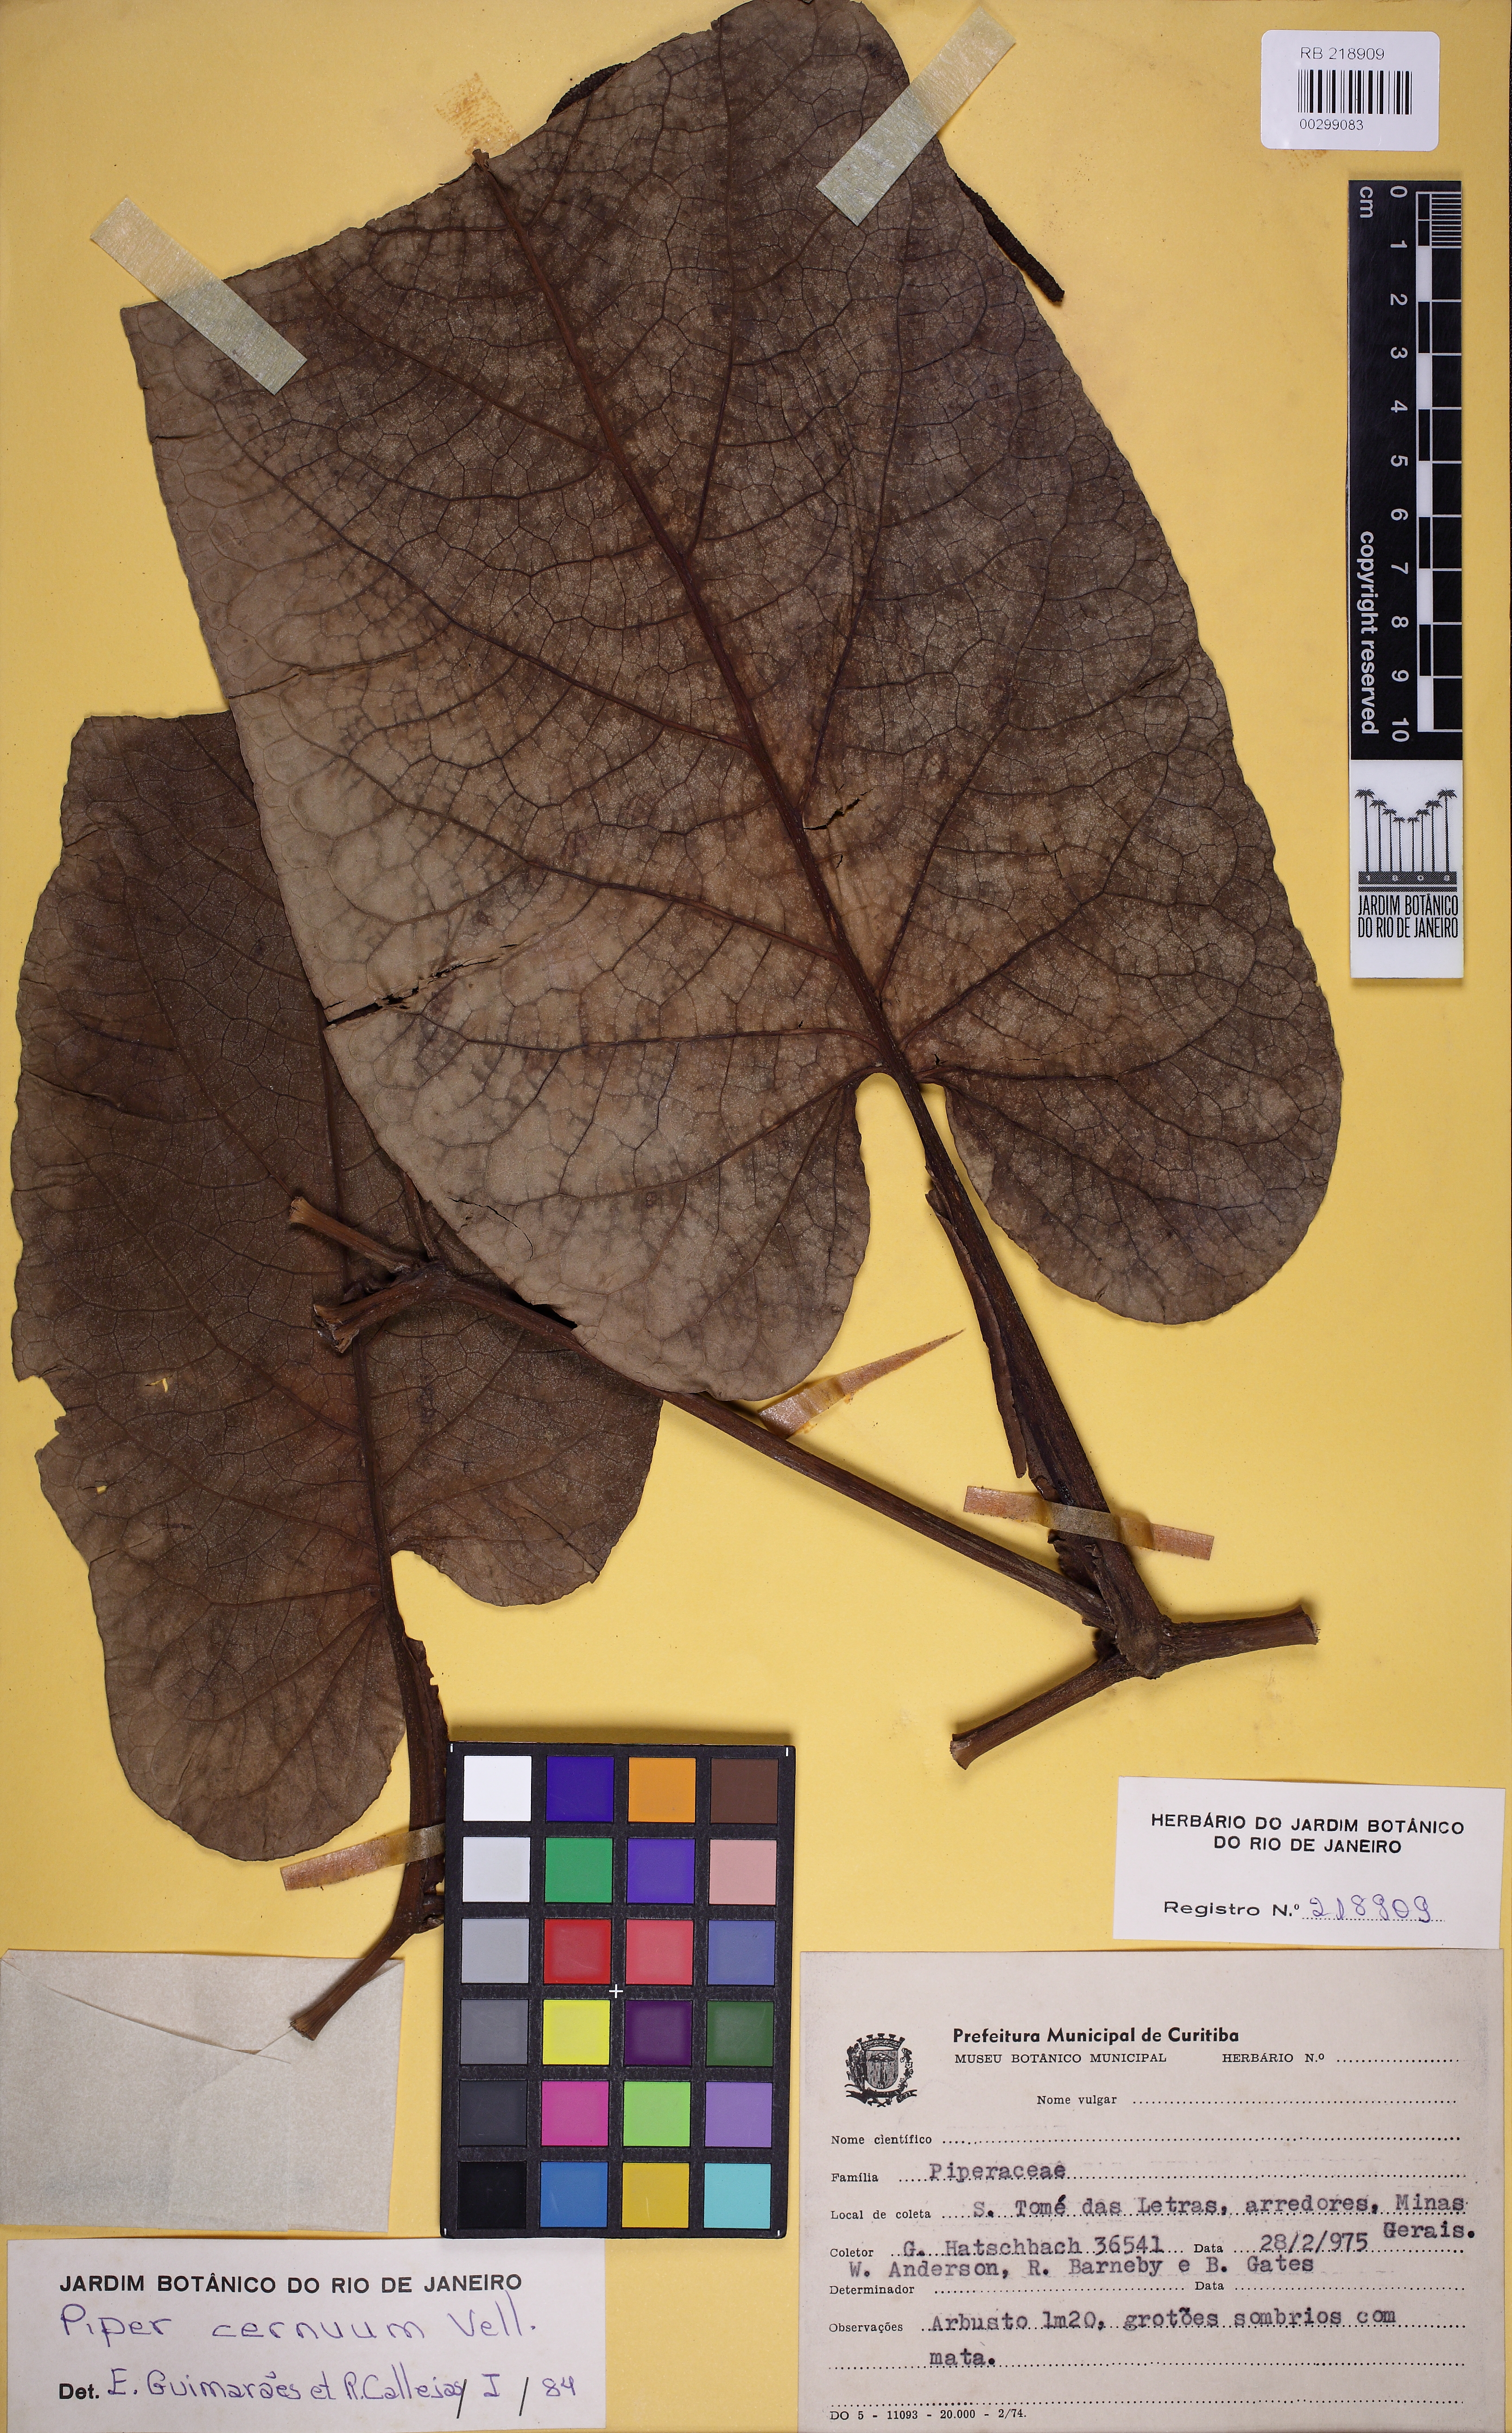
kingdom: Plantae
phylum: Tracheophyta
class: Magnoliopsida
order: Piperales
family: Piperaceae
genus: Piper
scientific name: Piper cernuum
